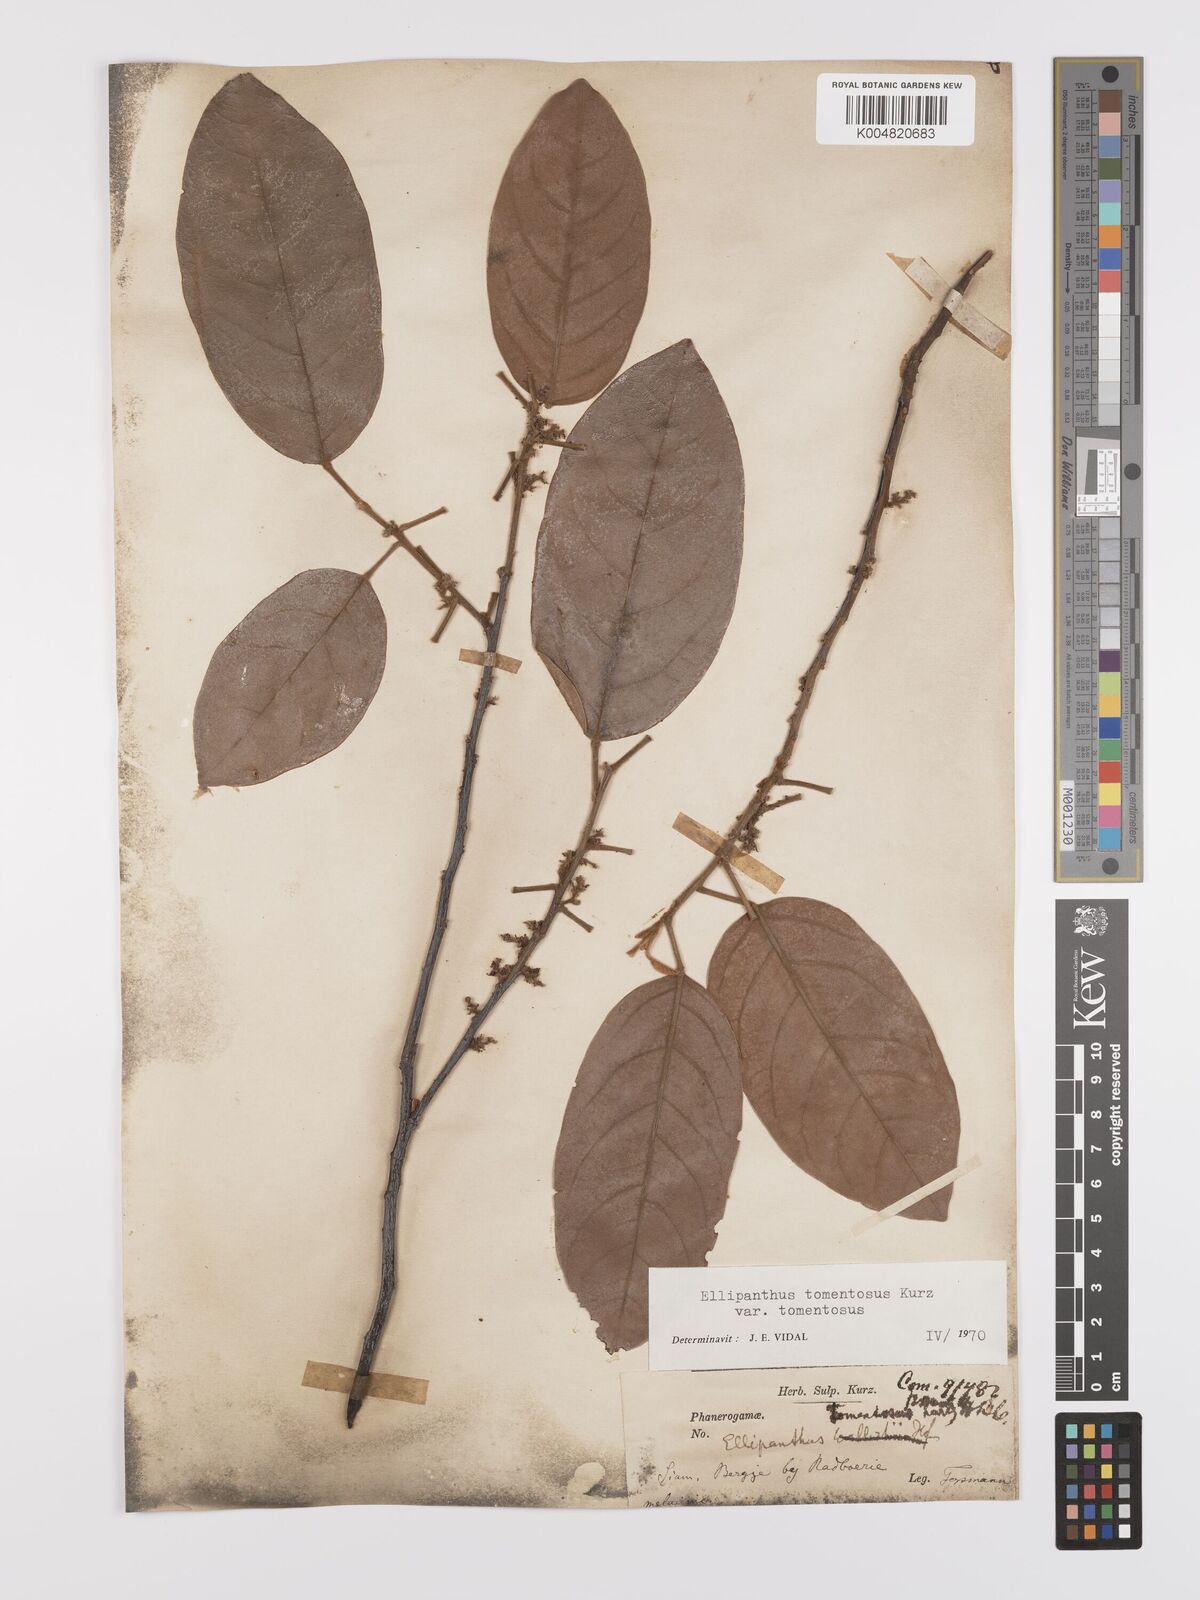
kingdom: Plantae
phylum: Tracheophyta
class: Magnoliopsida
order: Oxalidales
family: Connaraceae
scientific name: Connaraceae
